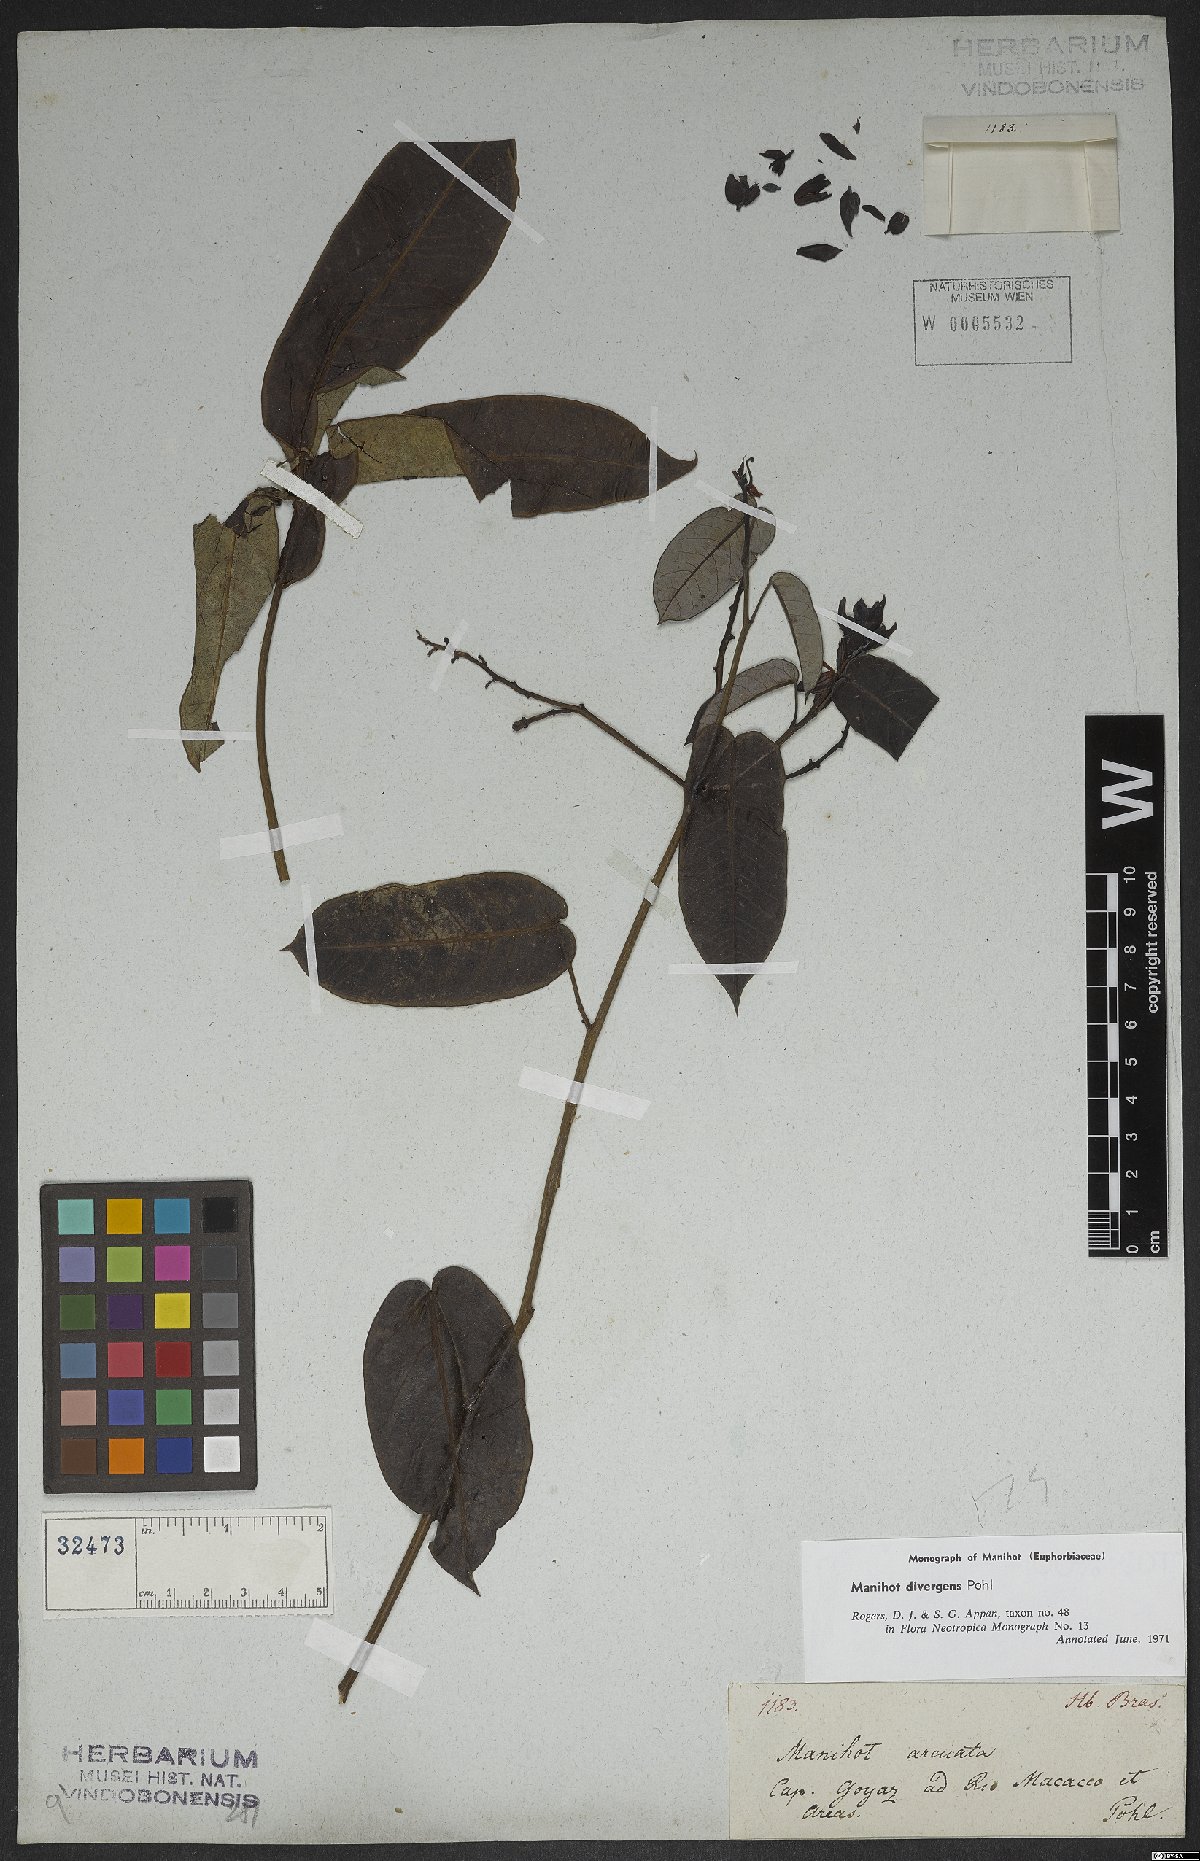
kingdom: Plantae
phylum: Tracheophyta
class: Magnoliopsida
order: Malpighiales
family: Euphorbiaceae
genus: Manihot
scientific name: Manihot divergens
